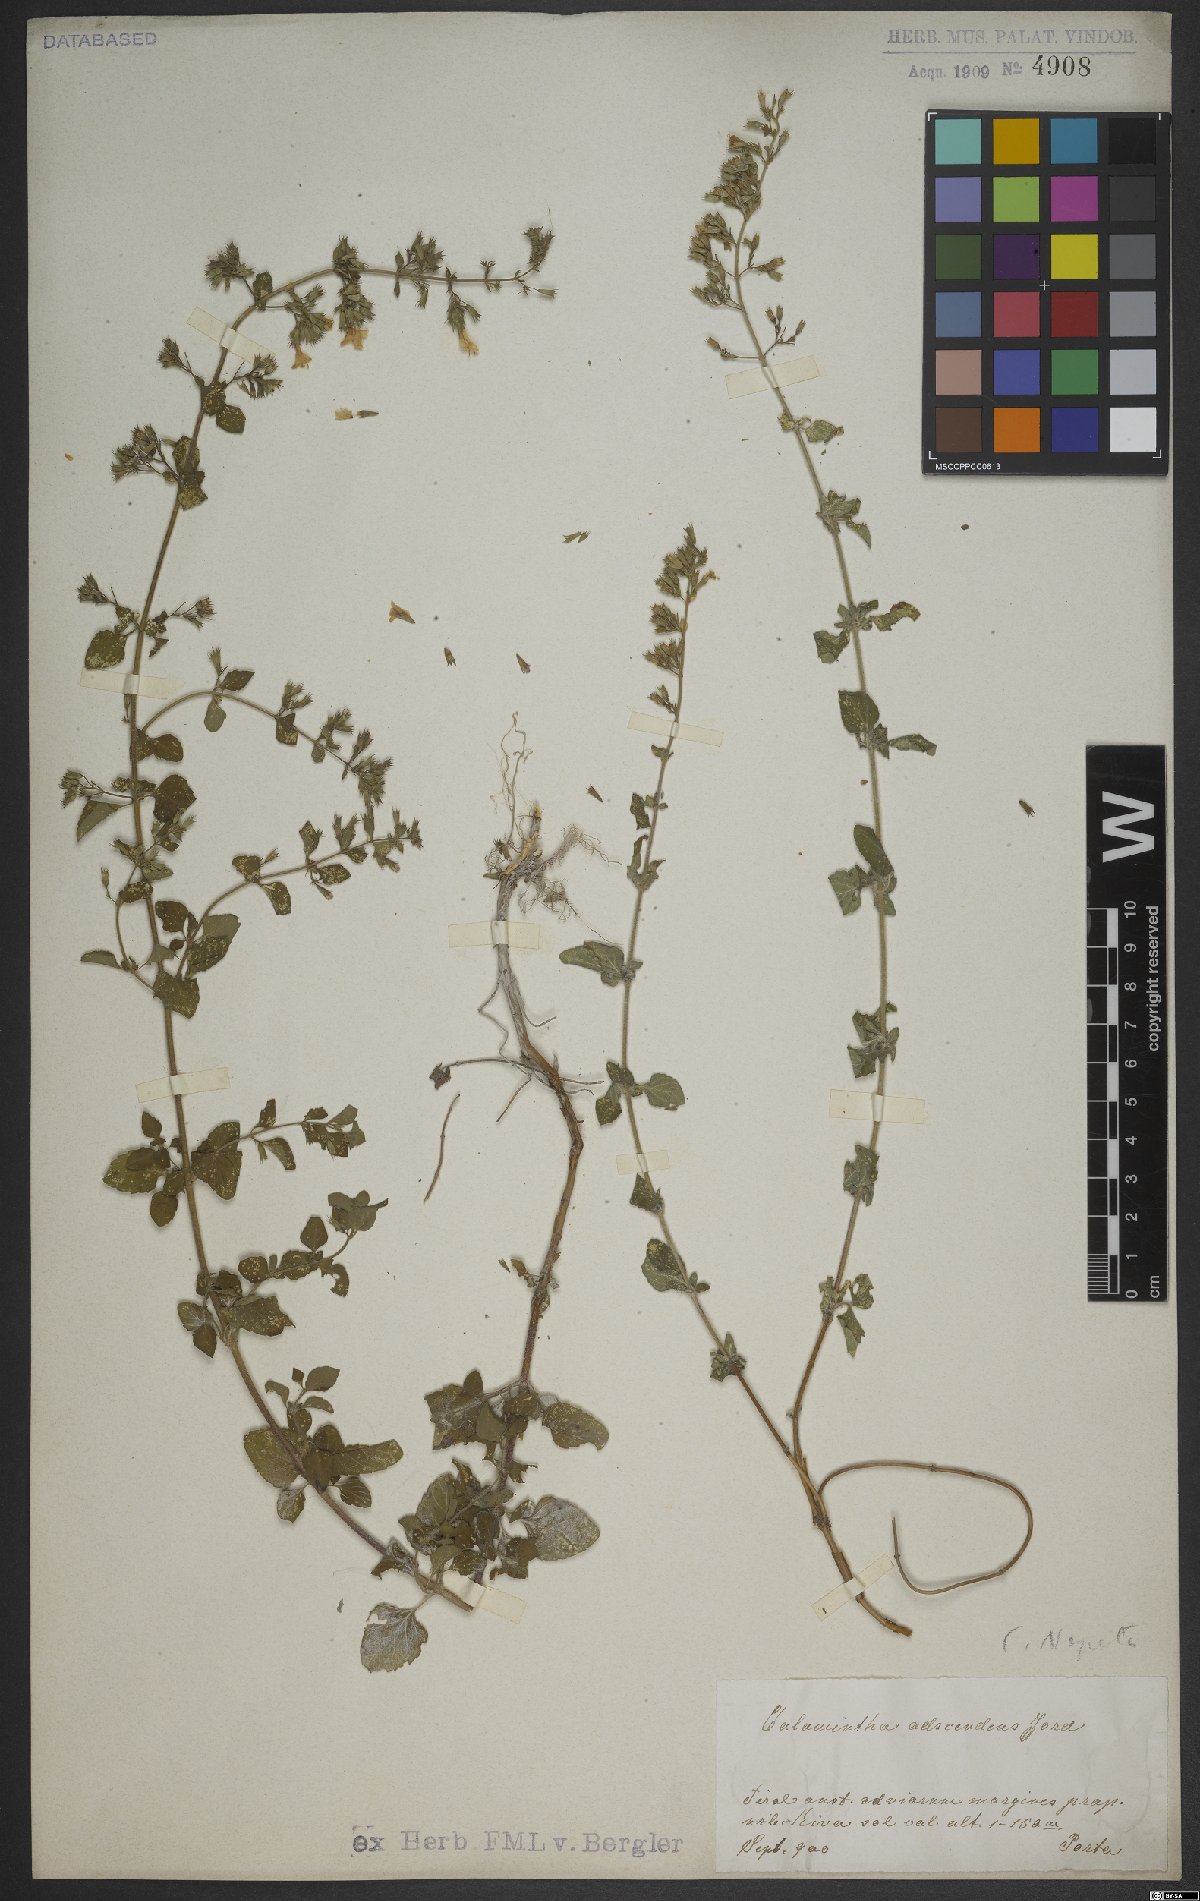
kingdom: Plantae
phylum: Tracheophyta
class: Magnoliopsida
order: Lamiales
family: Lamiaceae
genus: Clinopodium
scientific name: Clinopodium nepeta
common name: Lesser calamint
